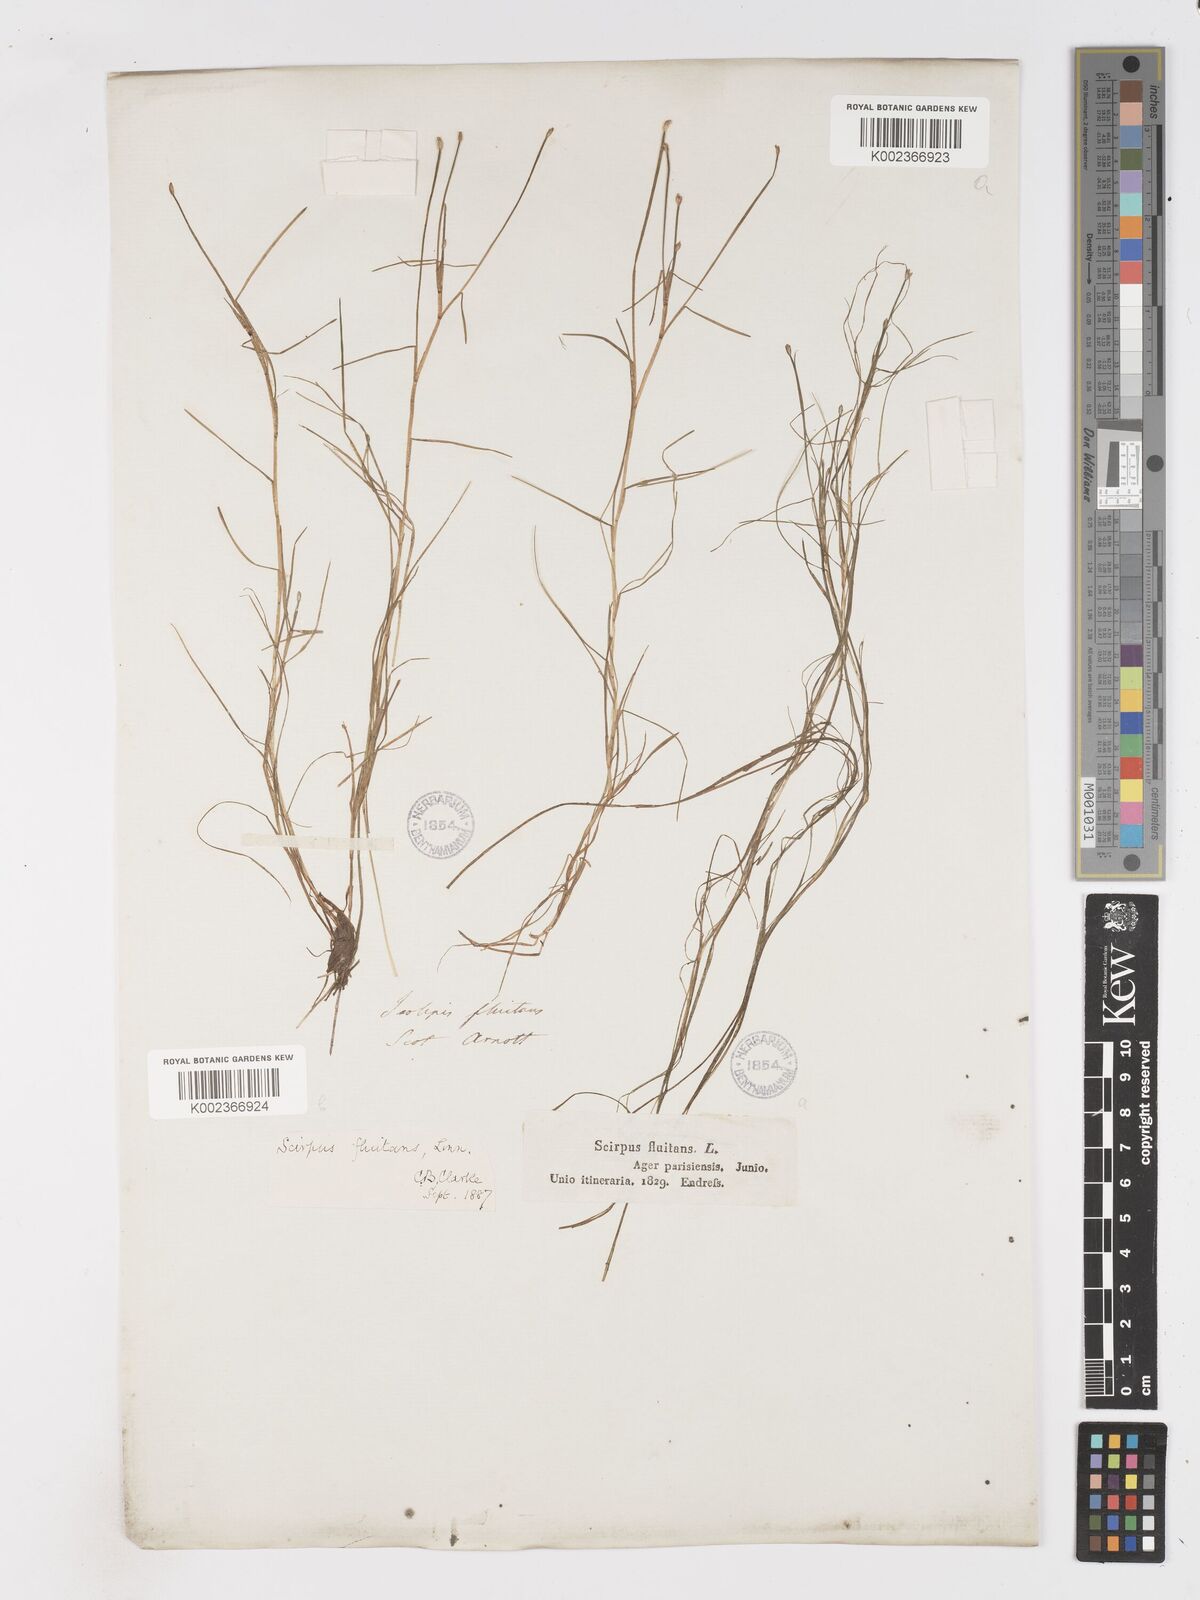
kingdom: Plantae
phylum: Tracheophyta
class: Liliopsida
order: Poales
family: Cyperaceae
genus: Isolepis
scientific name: Isolepis fluitans
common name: Floating club-rush
